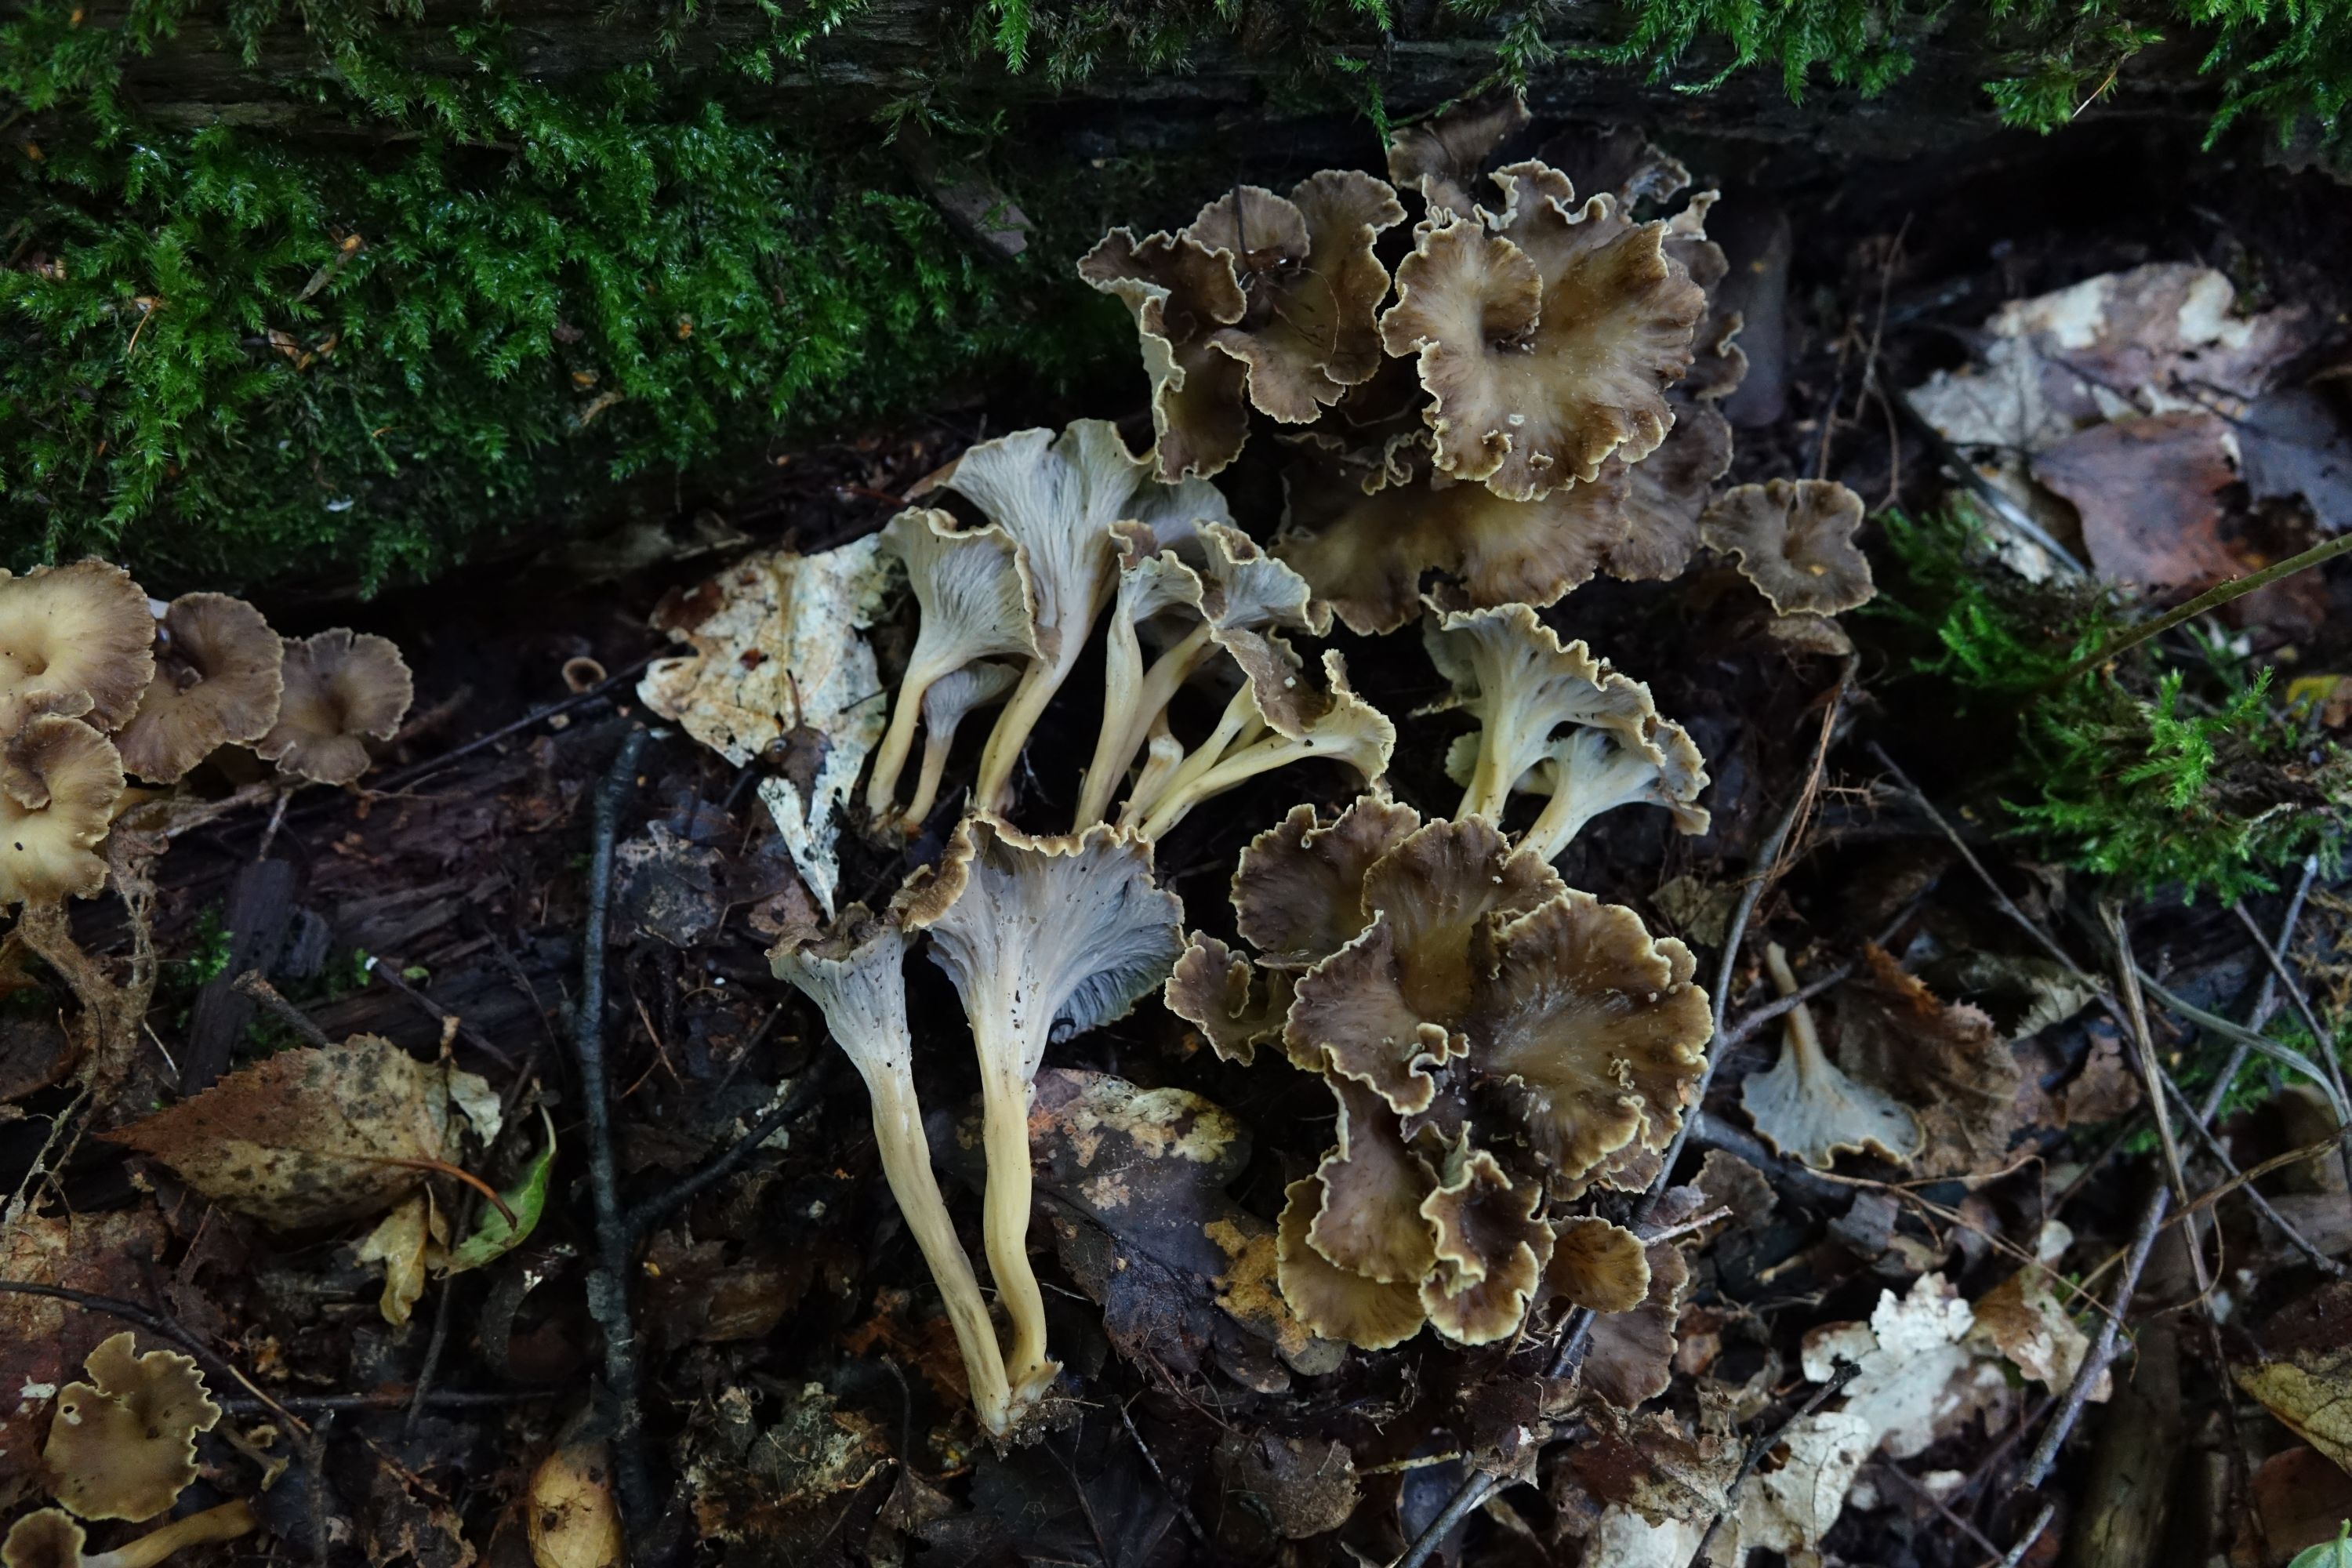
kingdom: Fungi
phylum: Basidiomycota
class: Agaricomycetes
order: Cantharellales
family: Hydnaceae
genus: Craterellus
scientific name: Craterellus undulatus
